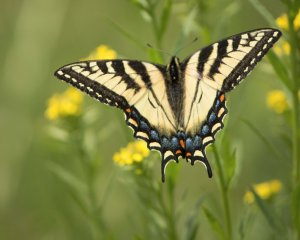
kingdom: Animalia
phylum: Arthropoda
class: Insecta
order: Lepidoptera
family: Papilionidae
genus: Pterourus
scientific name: Pterourus canadensis
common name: Canadian Tiger Swallowtail
